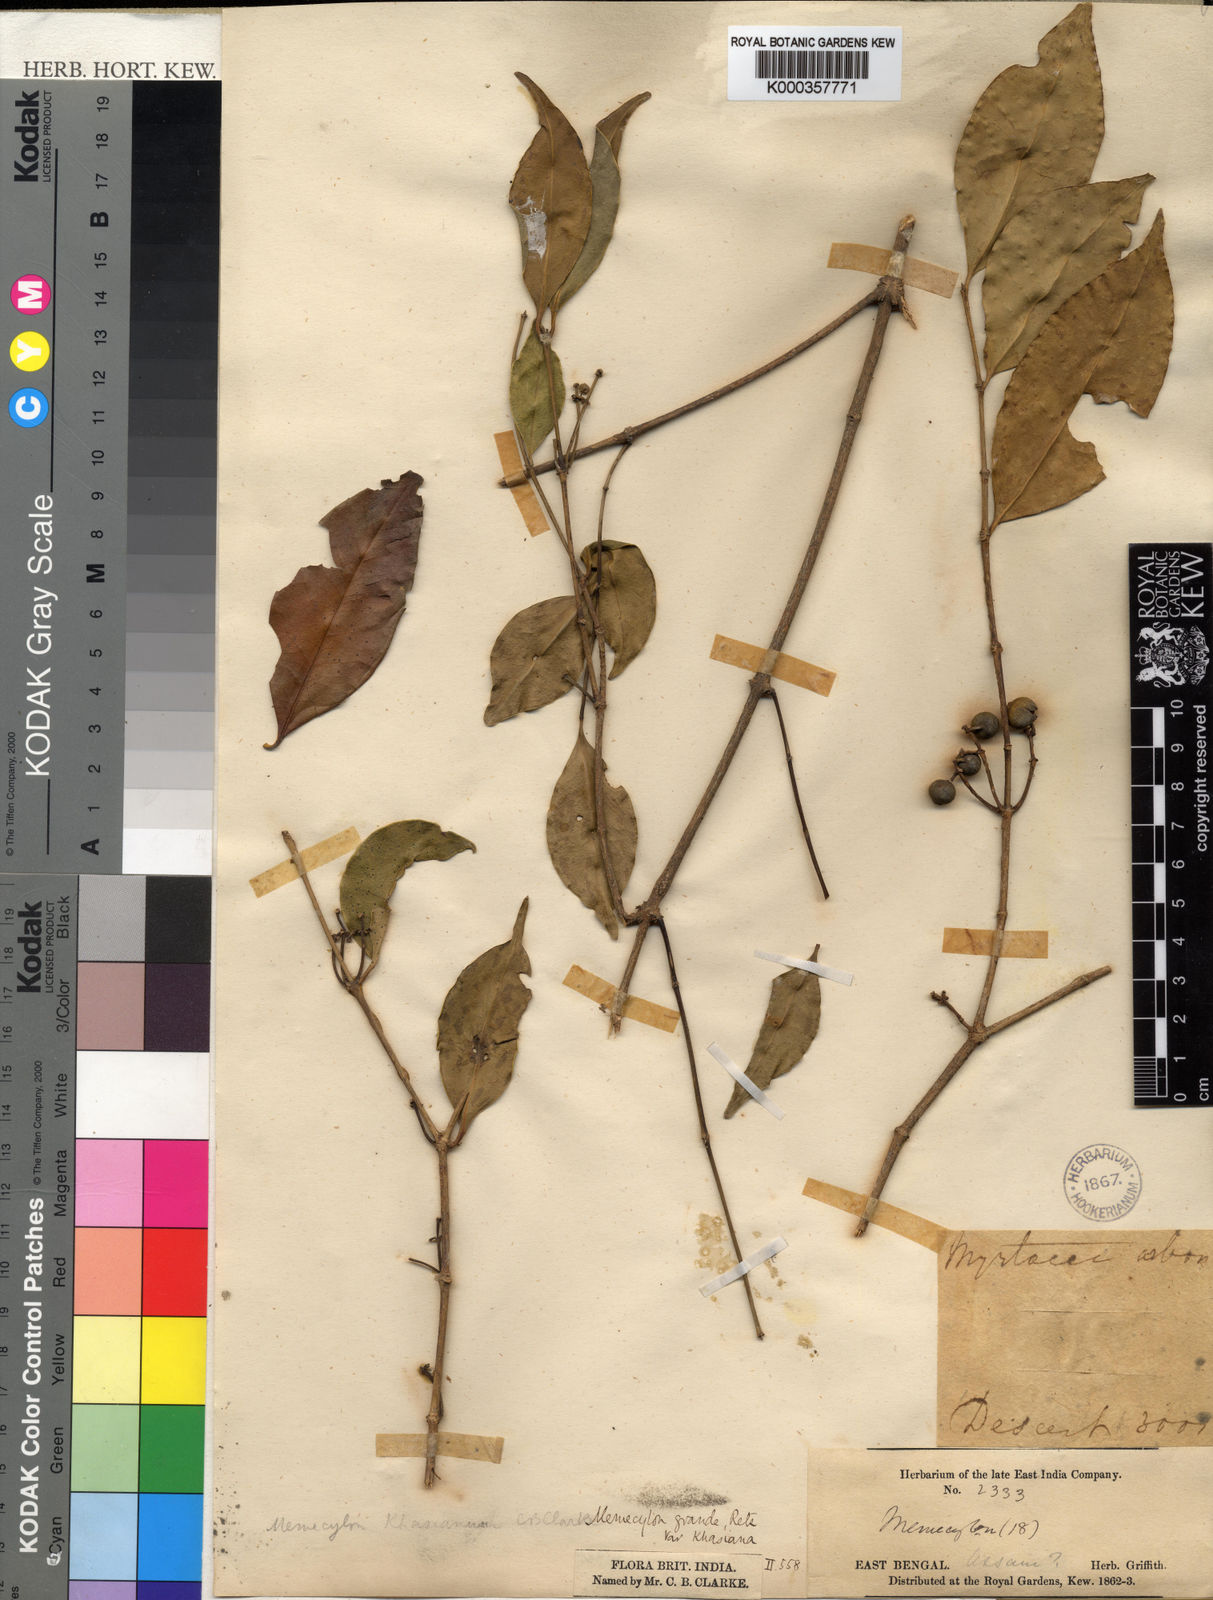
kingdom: Plantae
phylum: Tracheophyta
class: Magnoliopsida
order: Myrtales
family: Melastomataceae
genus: Memecylon
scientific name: Memecylon
